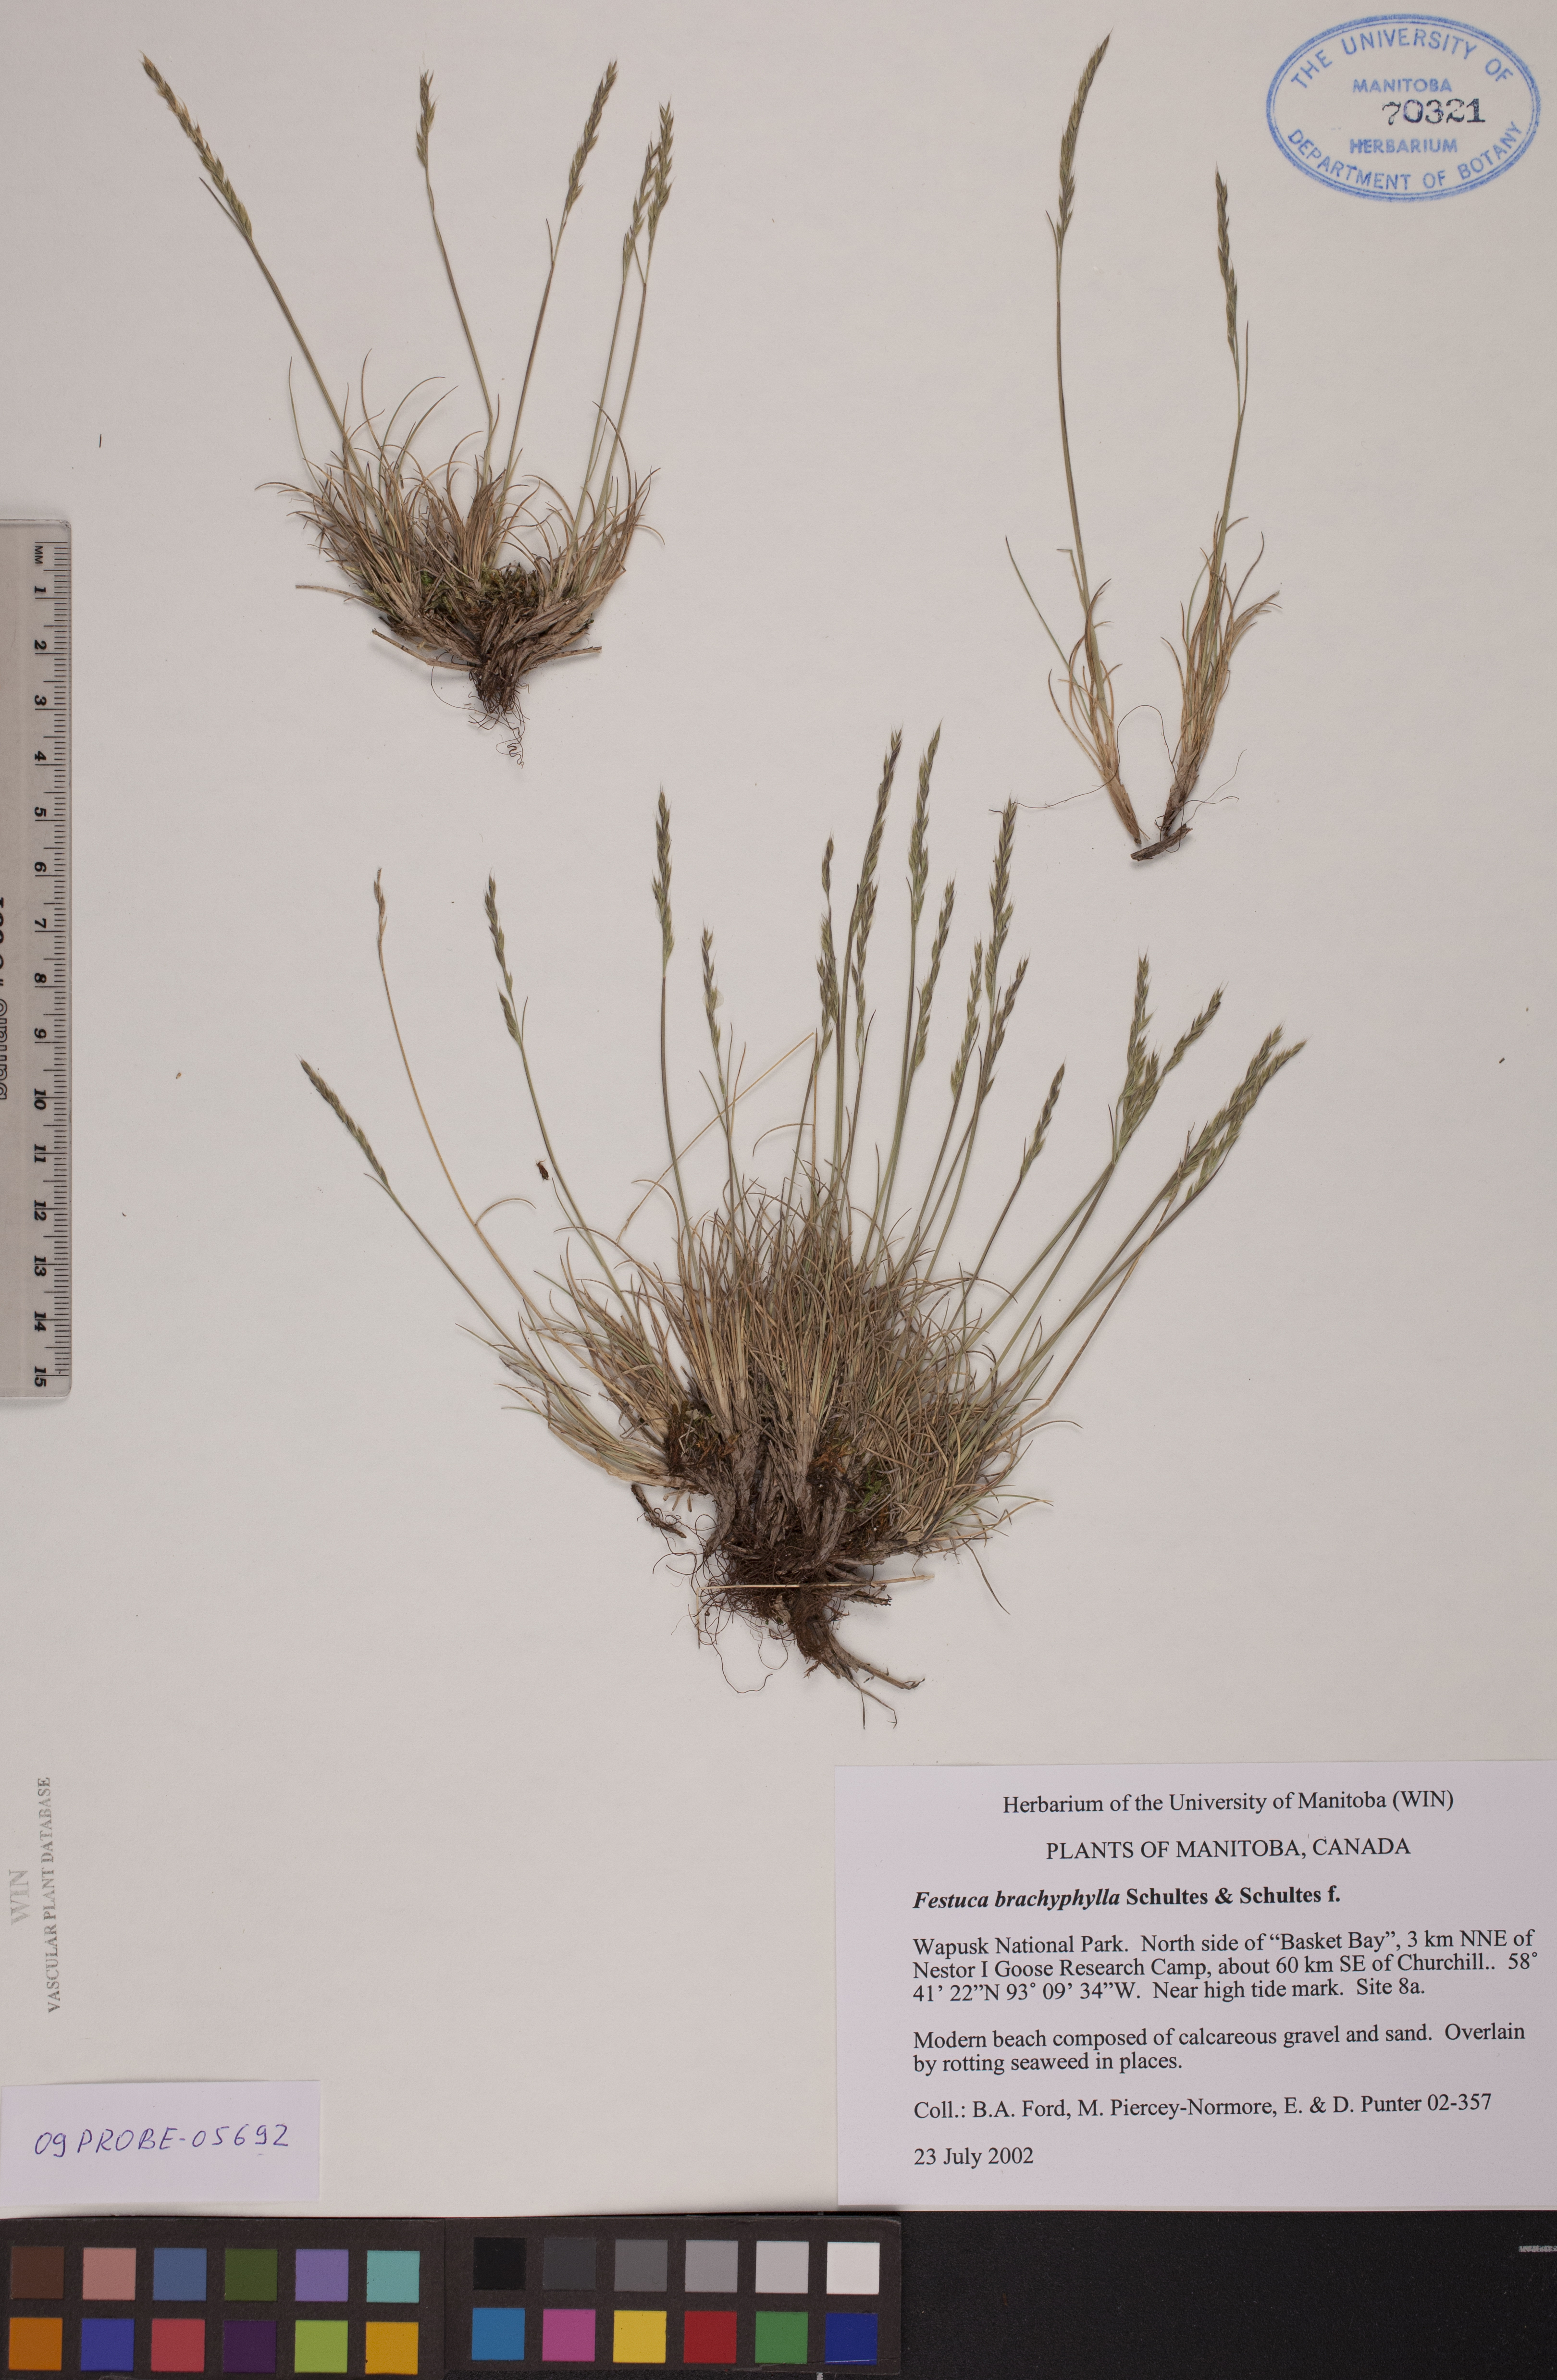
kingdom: Plantae
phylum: Tracheophyta
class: Liliopsida
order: Poales
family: Poaceae
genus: Festuca
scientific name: Festuca brachyphylla
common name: Alpine fescue
